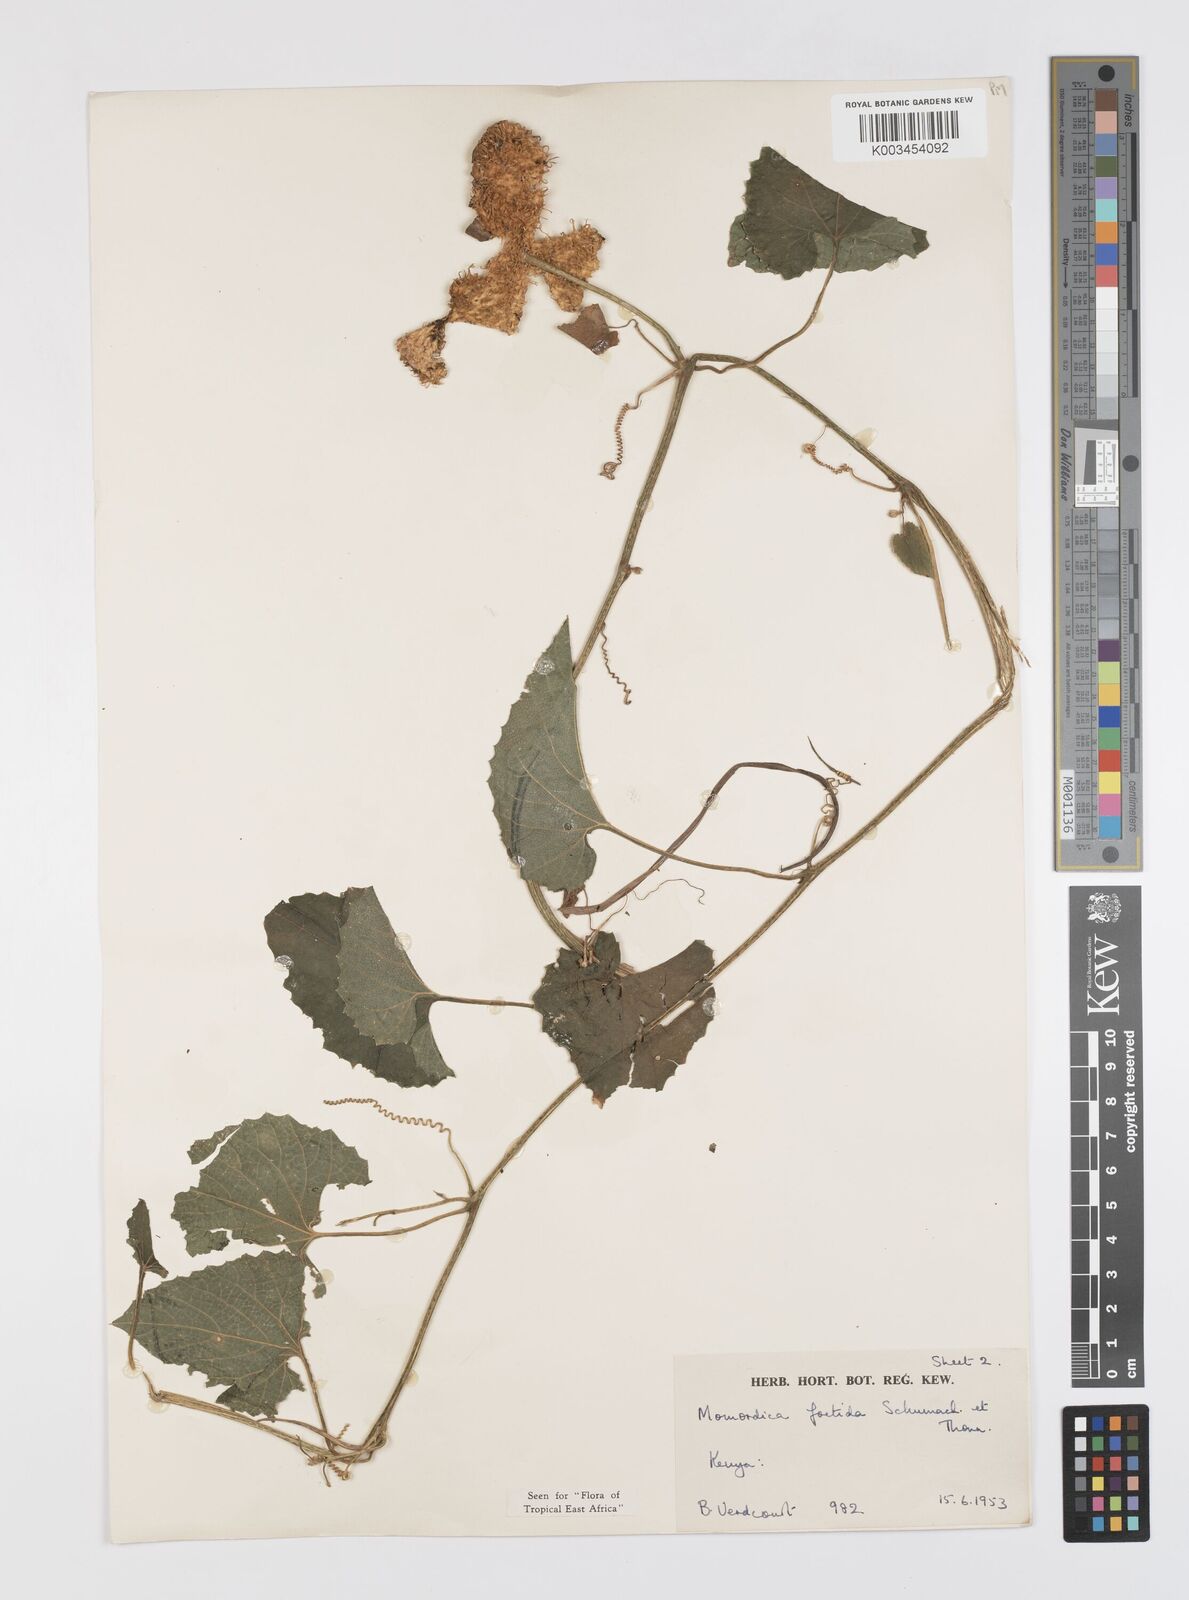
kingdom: Plantae
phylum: Tracheophyta
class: Magnoliopsida
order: Cucurbitales
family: Cucurbitaceae
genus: Momordica
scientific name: Momordica foetida
